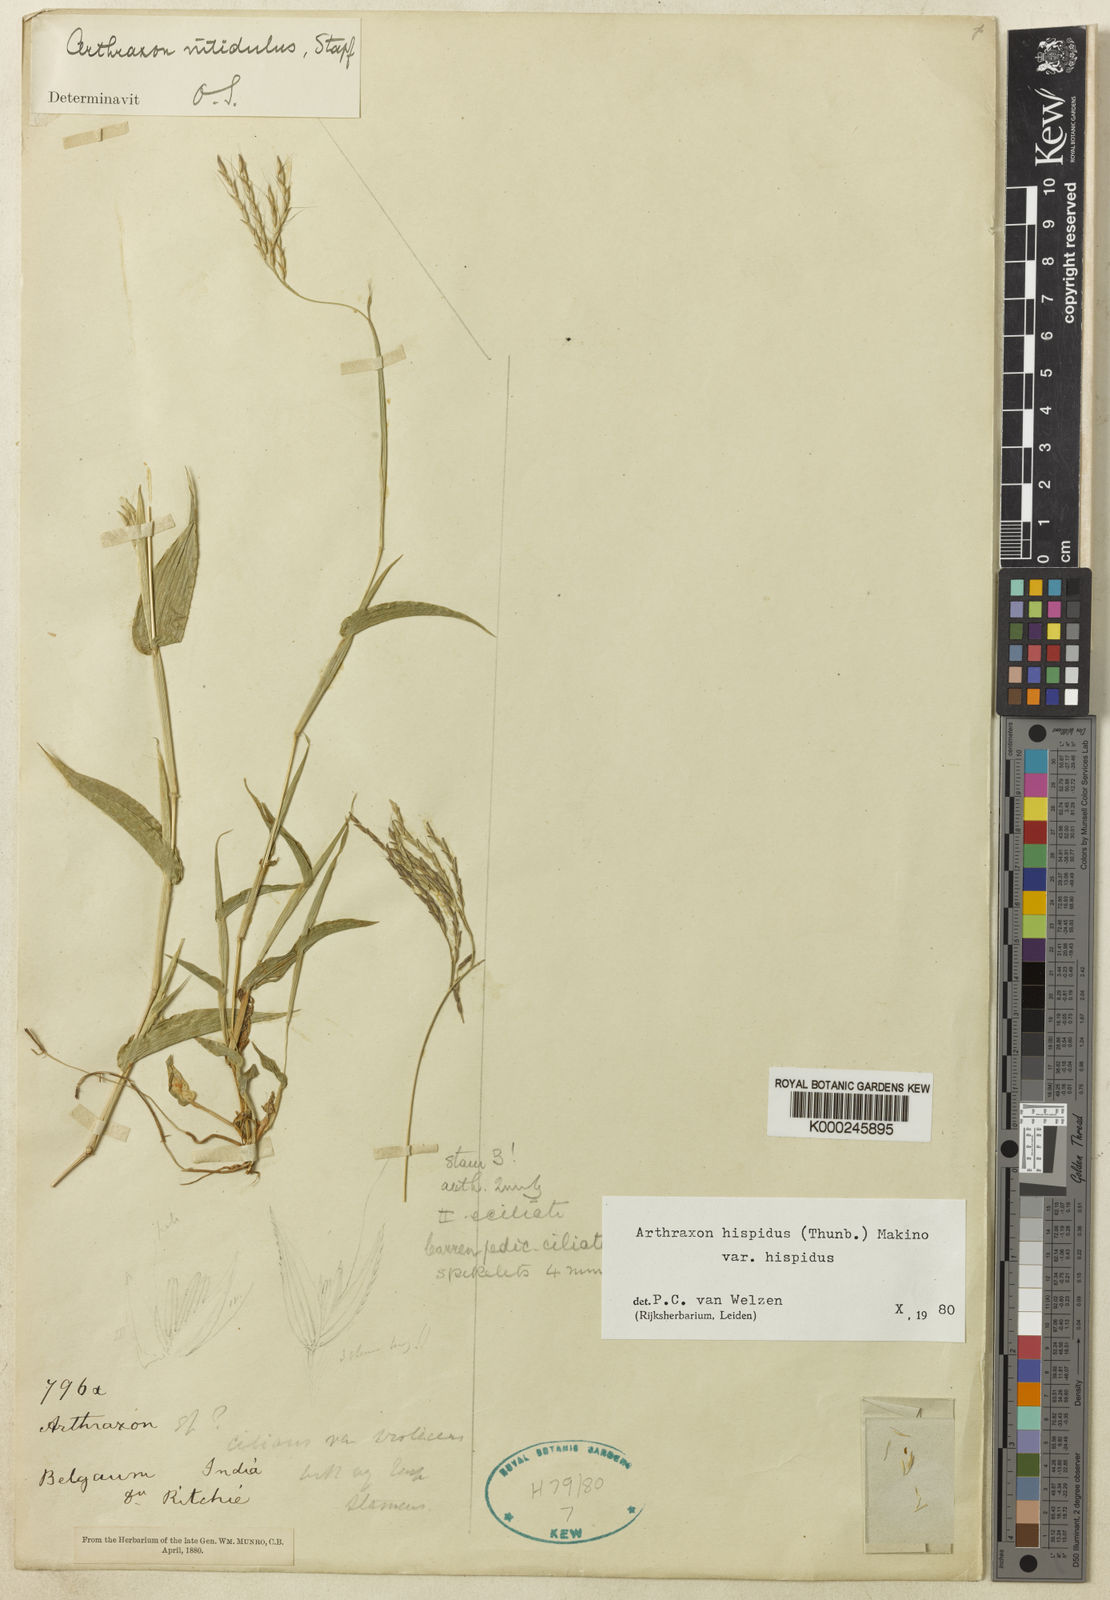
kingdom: Plantae
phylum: Tracheophyta
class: Liliopsida
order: Poales
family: Poaceae
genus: Arthraxon
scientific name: Arthraxon typicus
